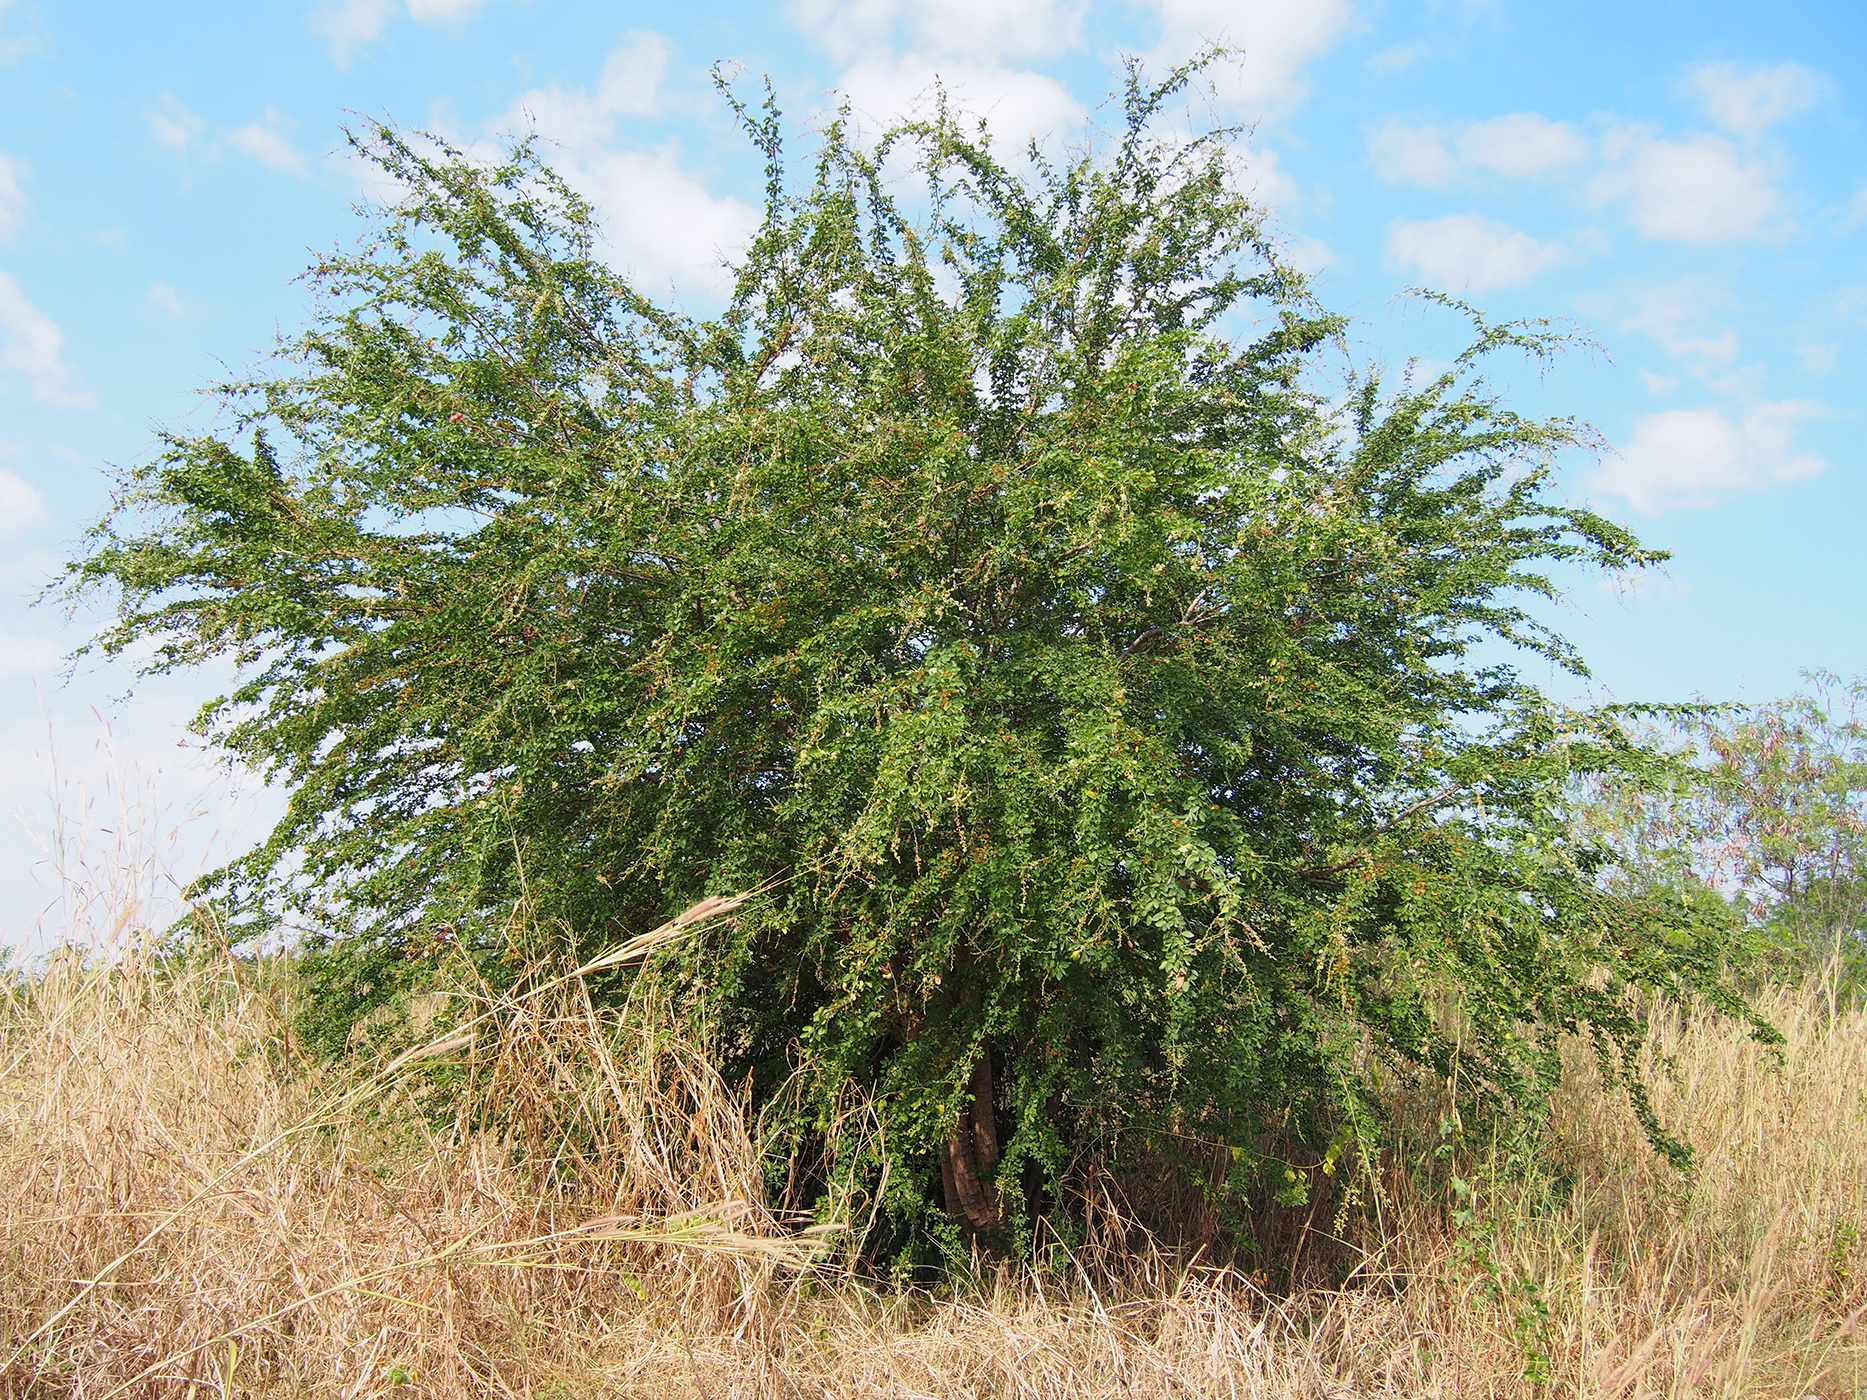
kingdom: Plantae
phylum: Tracheophyta
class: Magnoliopsida
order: Fabales
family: Fabaceae
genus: Pithecellobium
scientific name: Pithecellobium dulce
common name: Monkeypod
